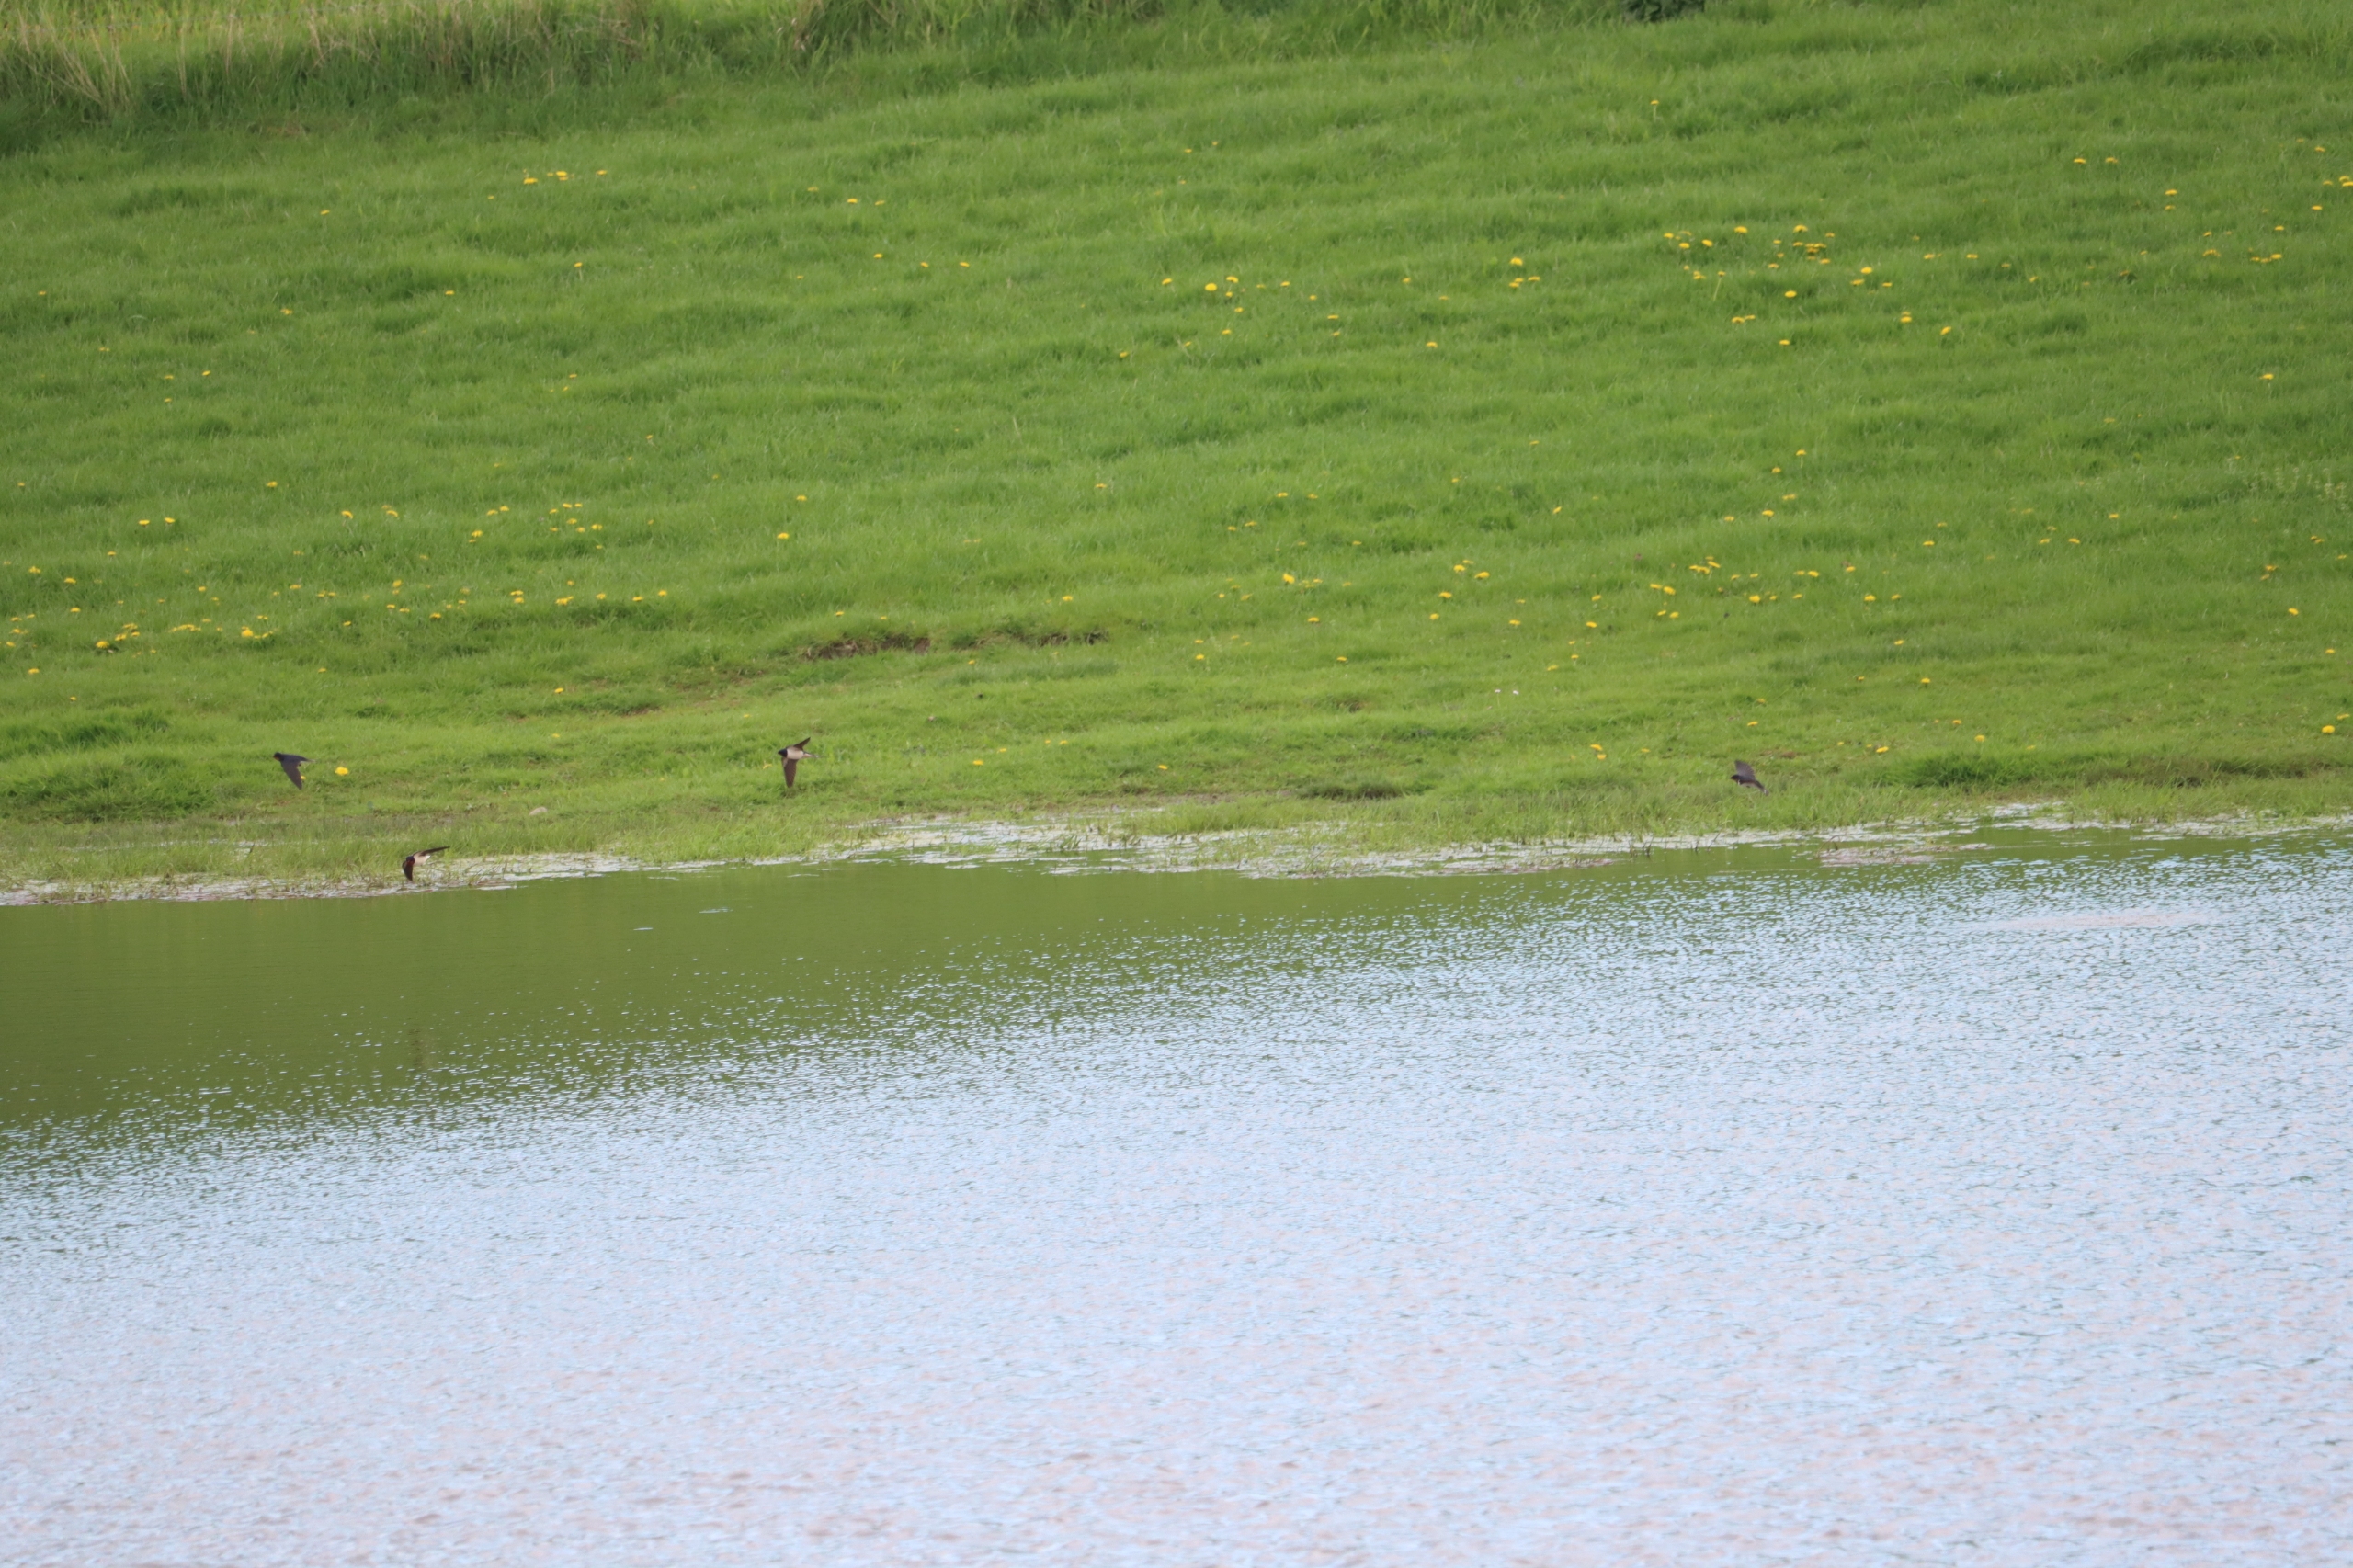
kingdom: Animalia
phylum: Chordata
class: Aves
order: Passeriformes
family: Hirundinidae
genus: Hirundo
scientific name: Hirundo rustica
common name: Landsvale
